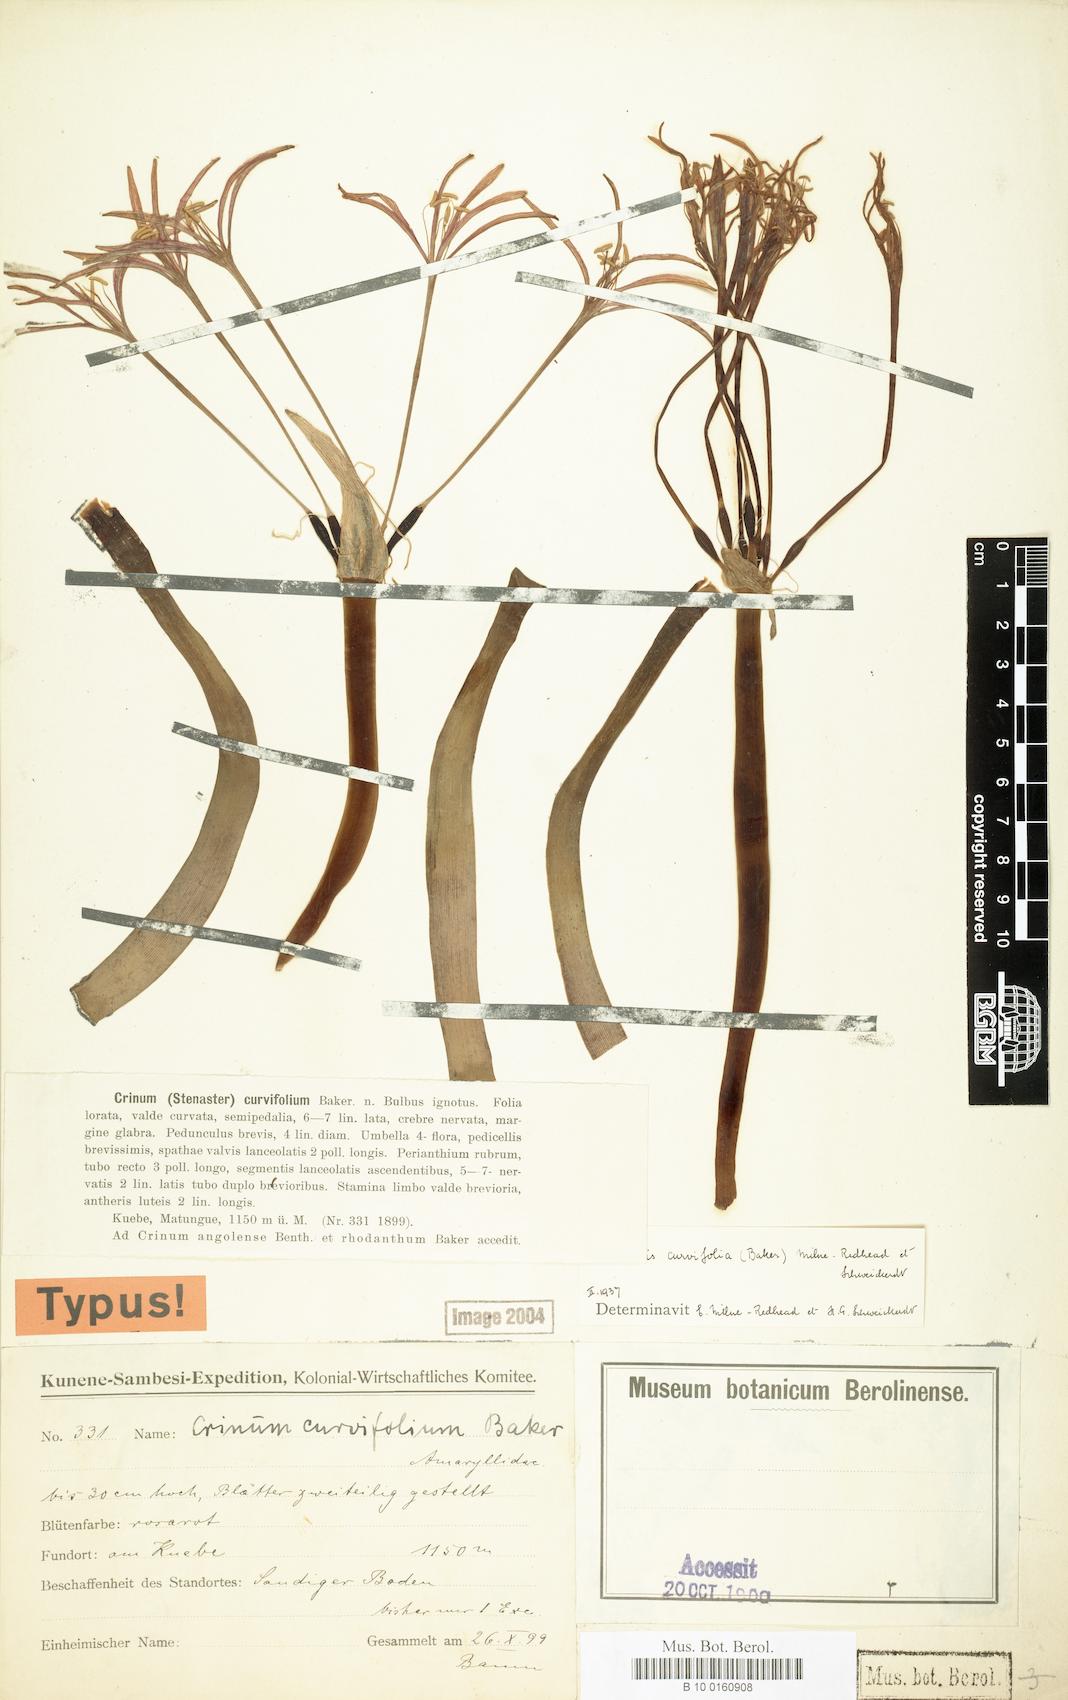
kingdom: Plantae
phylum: Tracheophyta
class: Liliopsida
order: Asparagales
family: Amaryllidaceae
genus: Ammocharis
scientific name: Ammocharis
